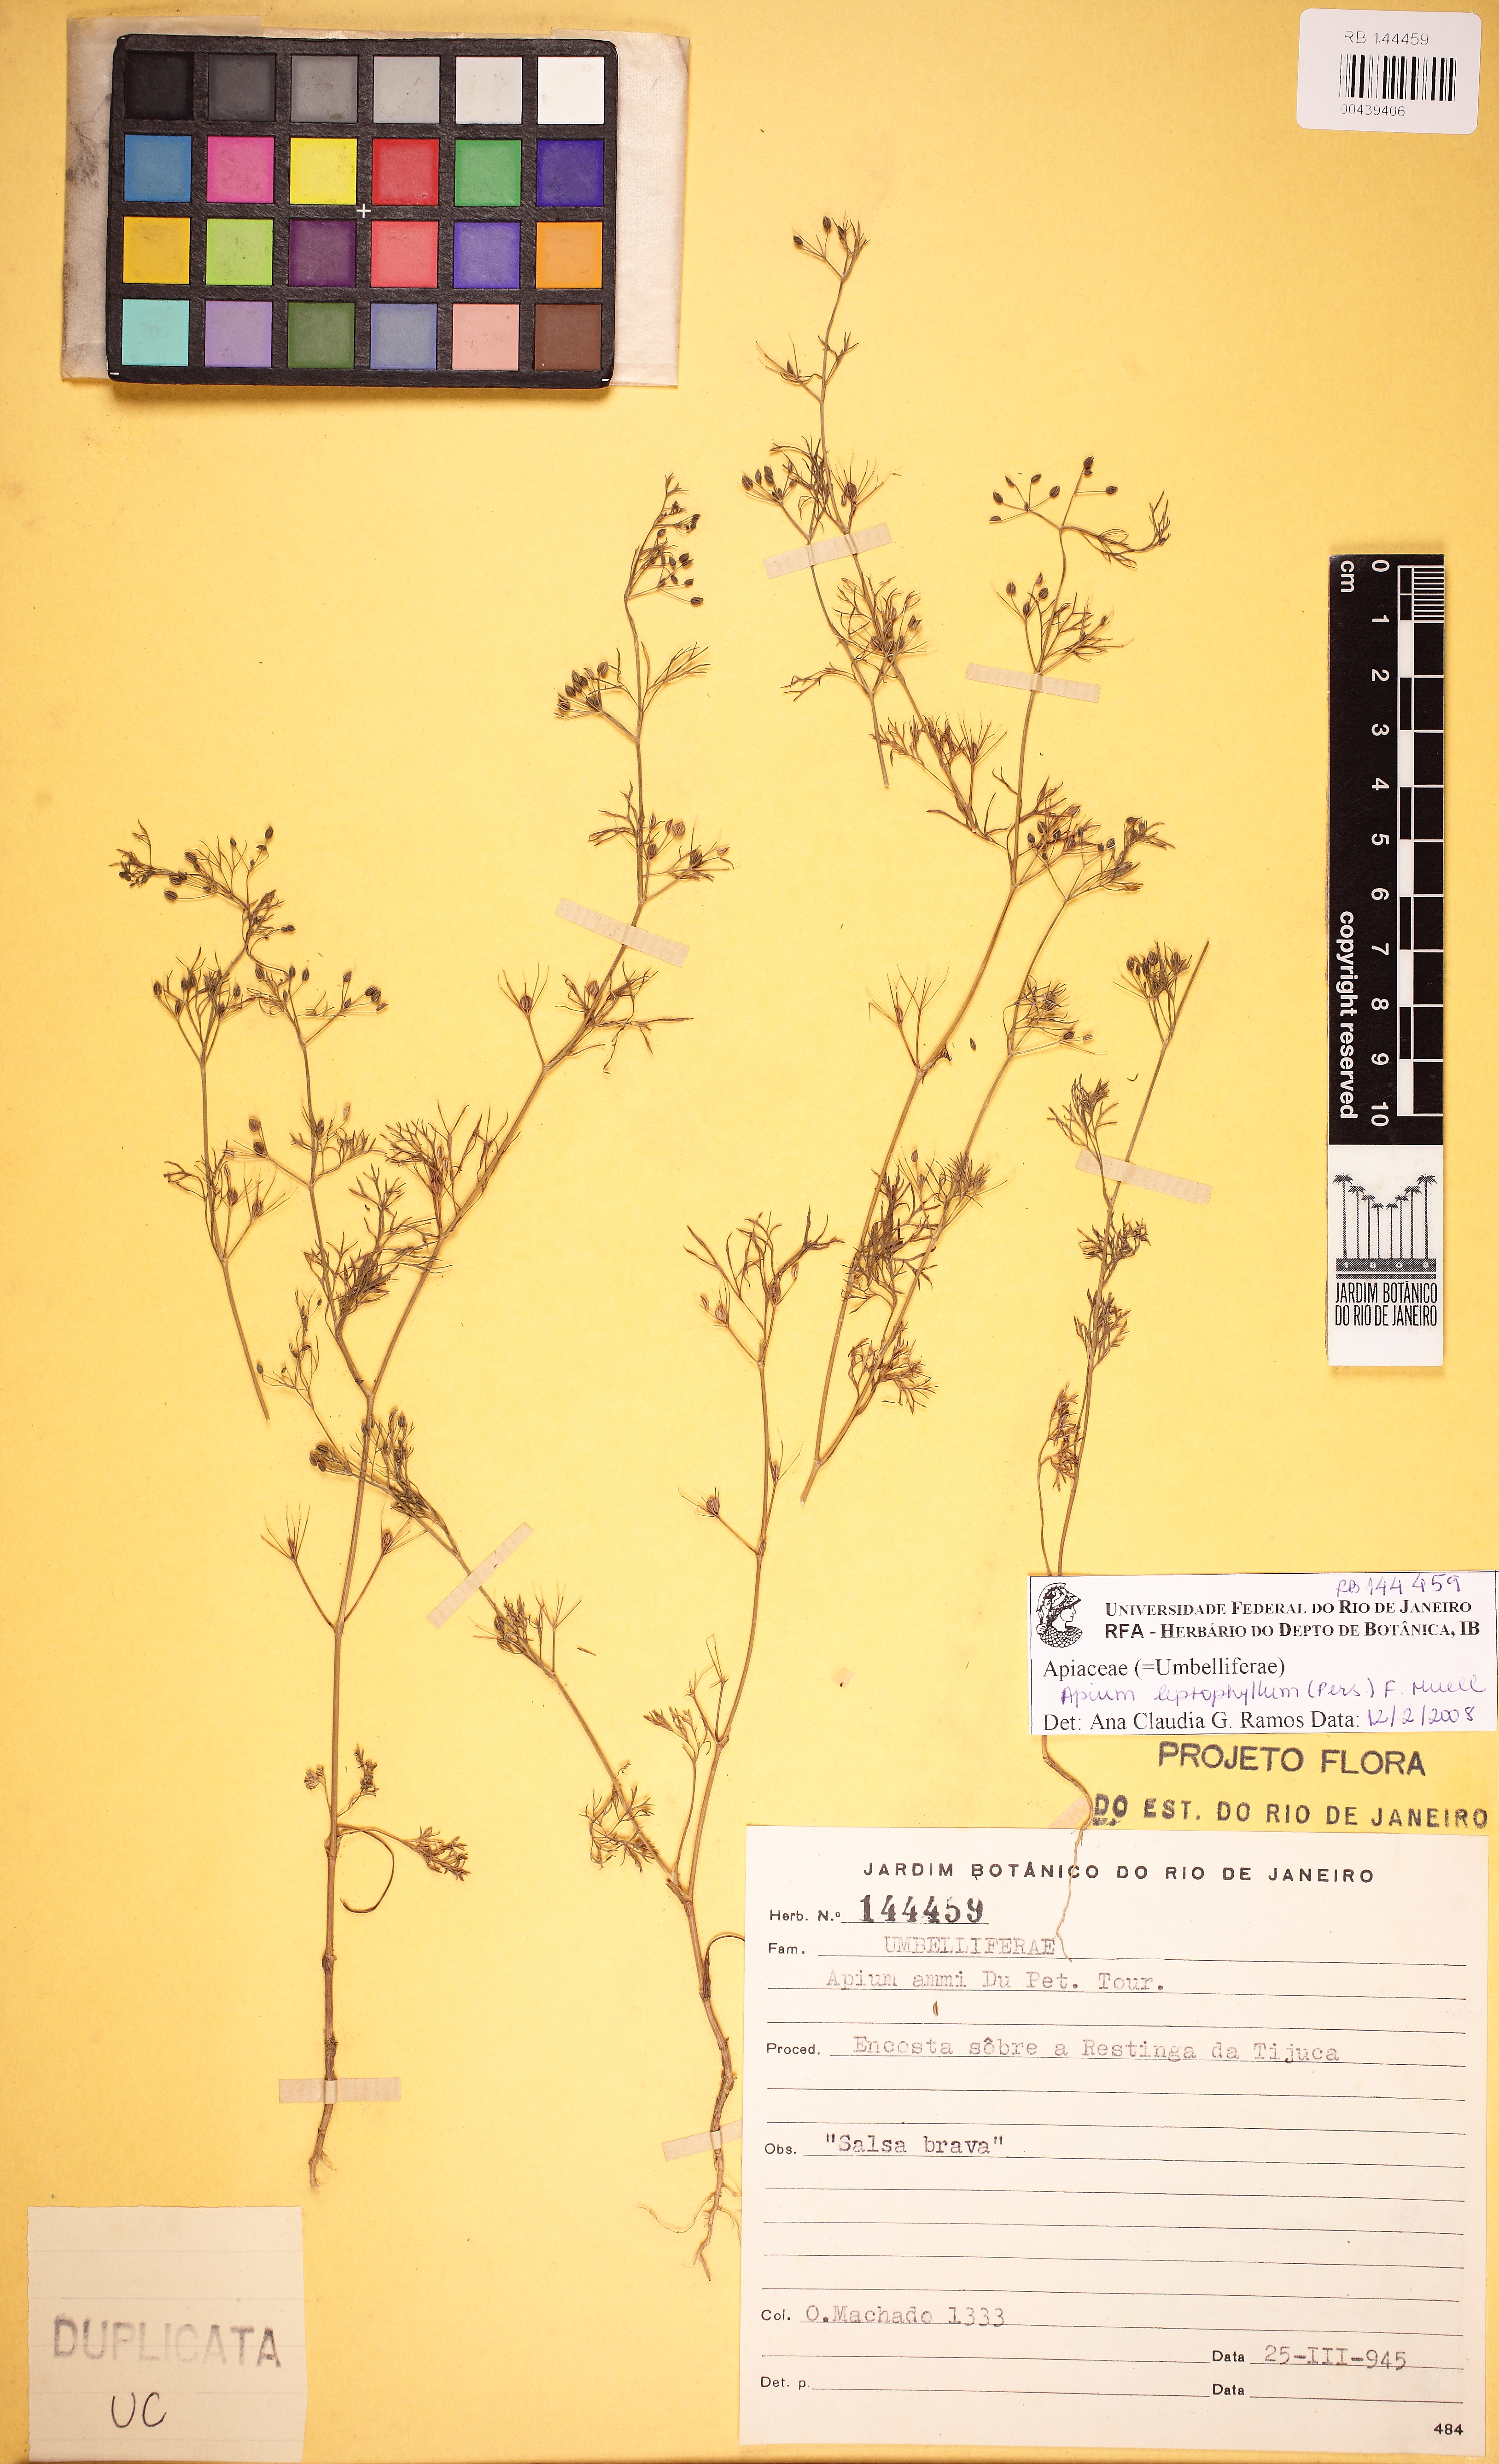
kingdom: Plantae
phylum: Tracheophyta
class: Magnoliopsida
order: Apiales
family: Apiaceae
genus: Cyclospermum
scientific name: Cyclospermum leptophyllum
